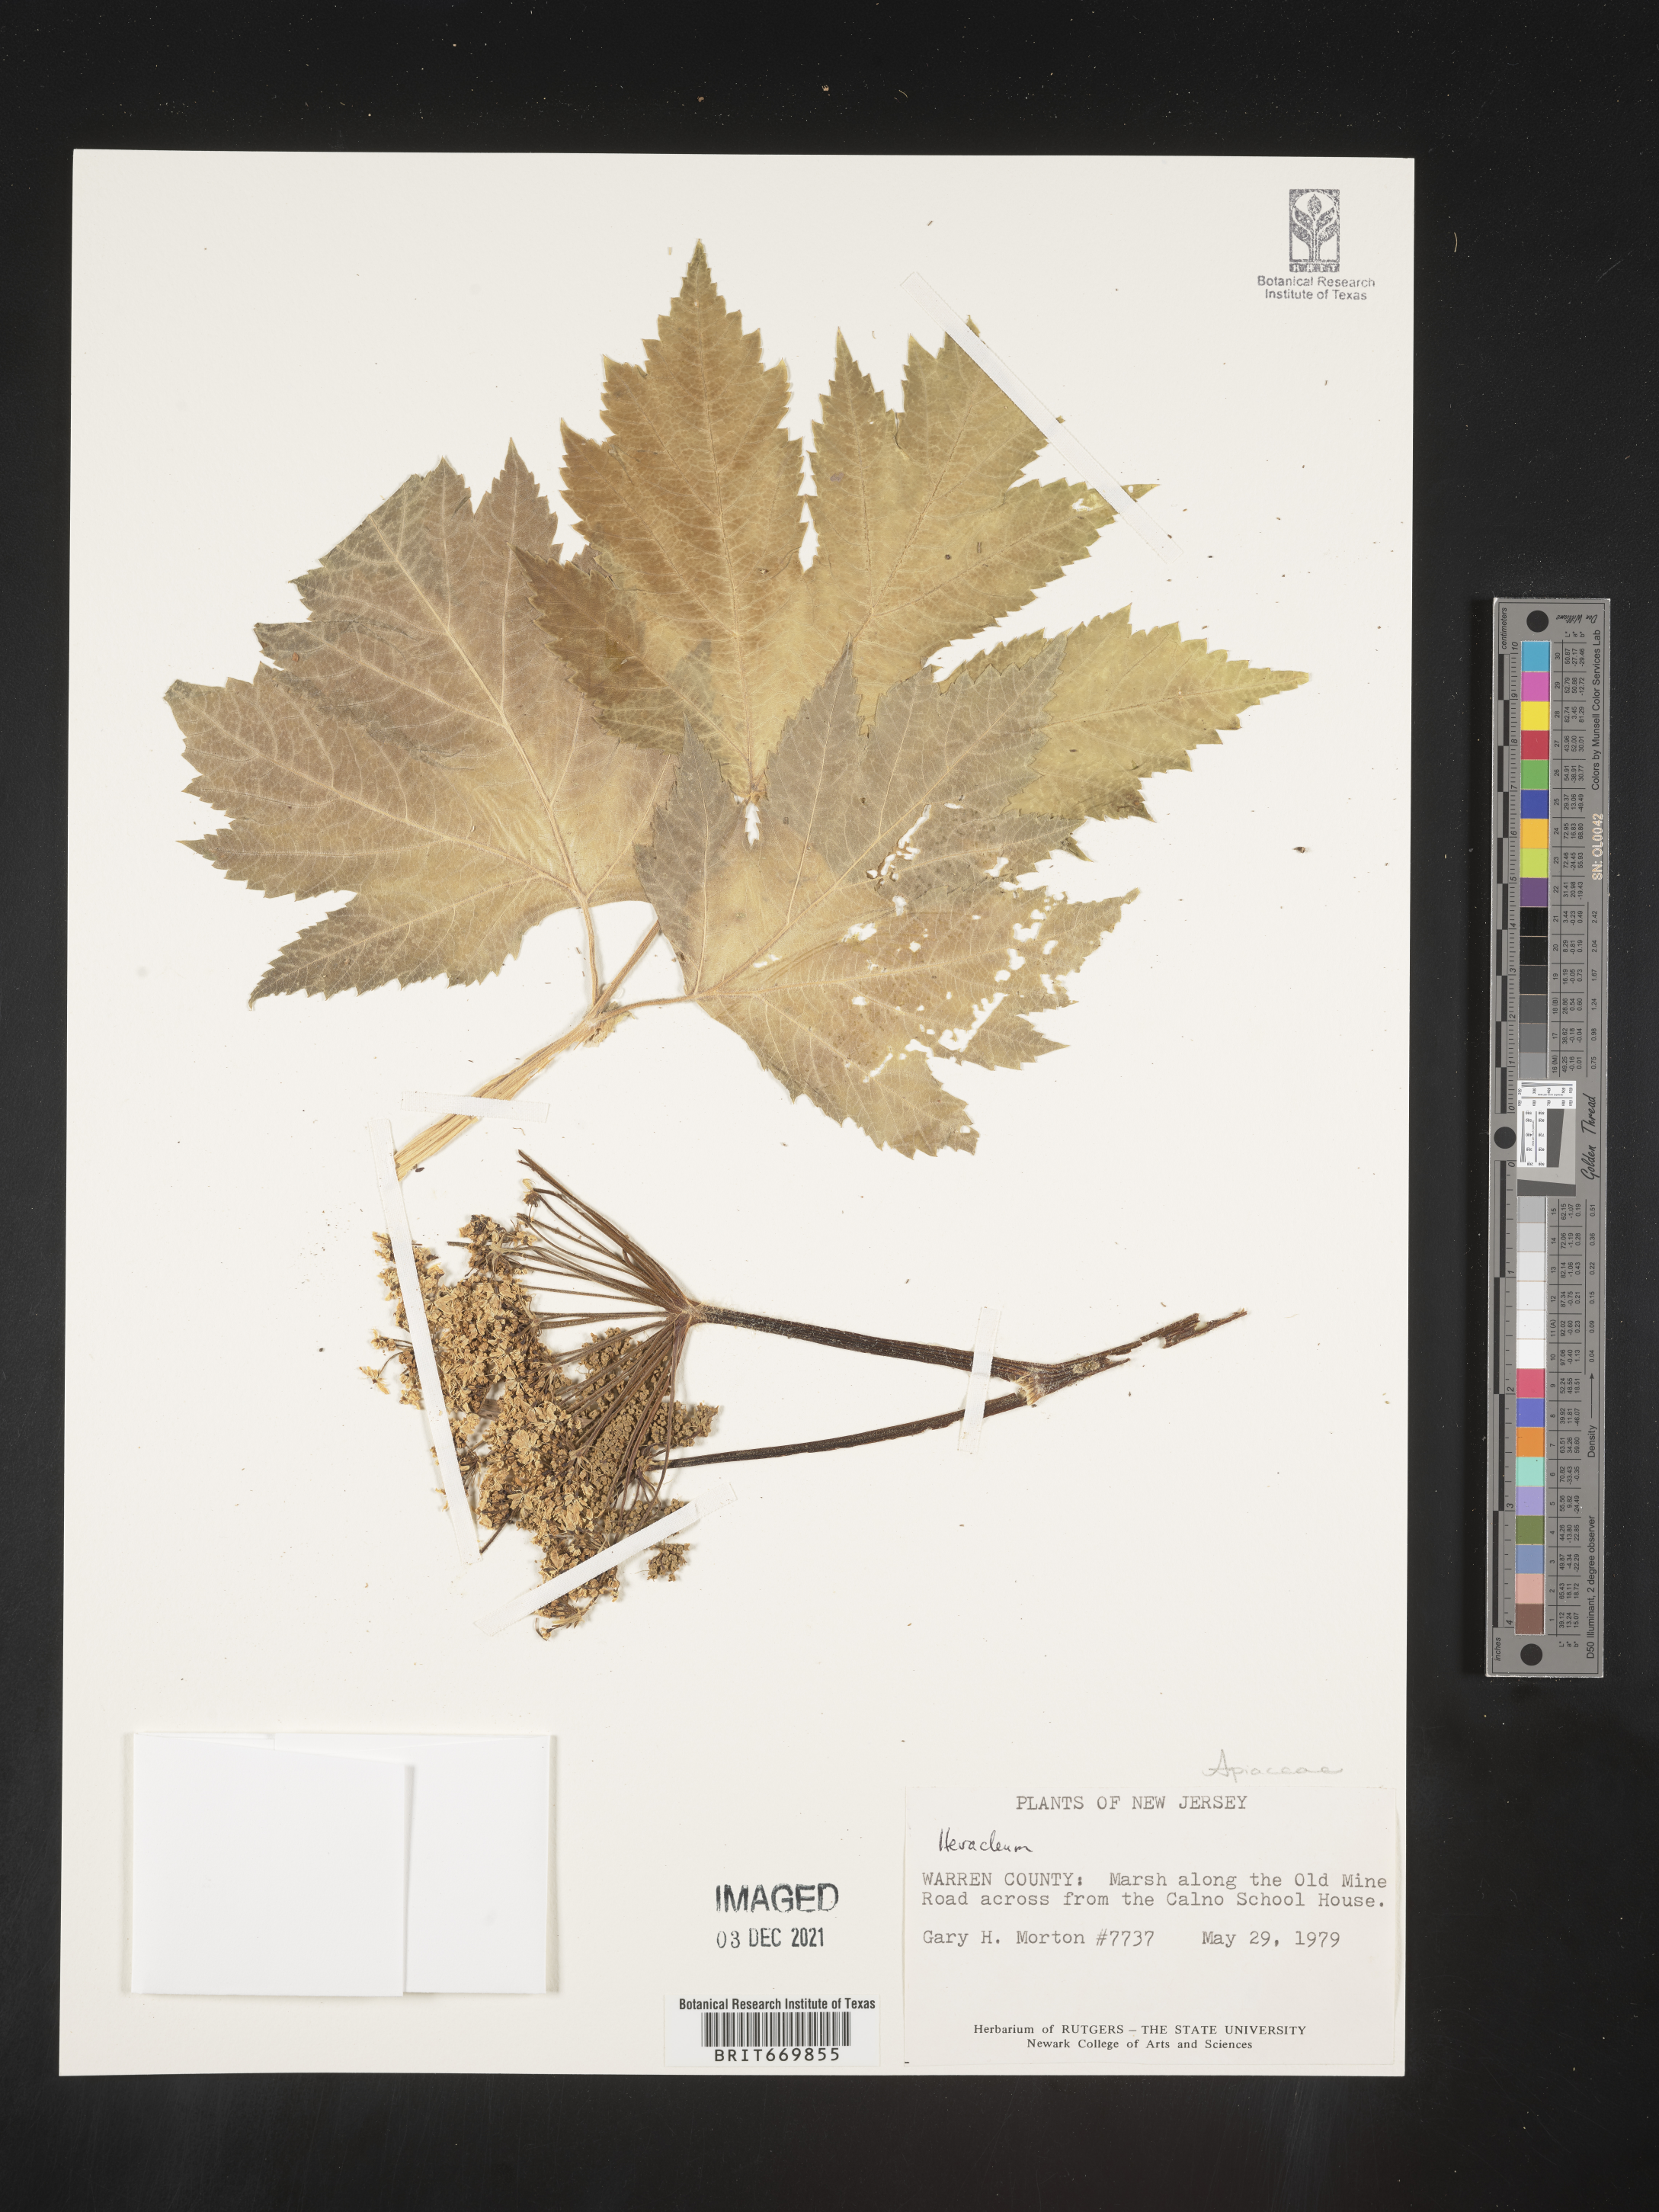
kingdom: Plantae
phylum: Tracheophyta
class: Magnoliopsida
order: Apiales
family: Apiaceae
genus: Heracleum
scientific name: Heracleum
